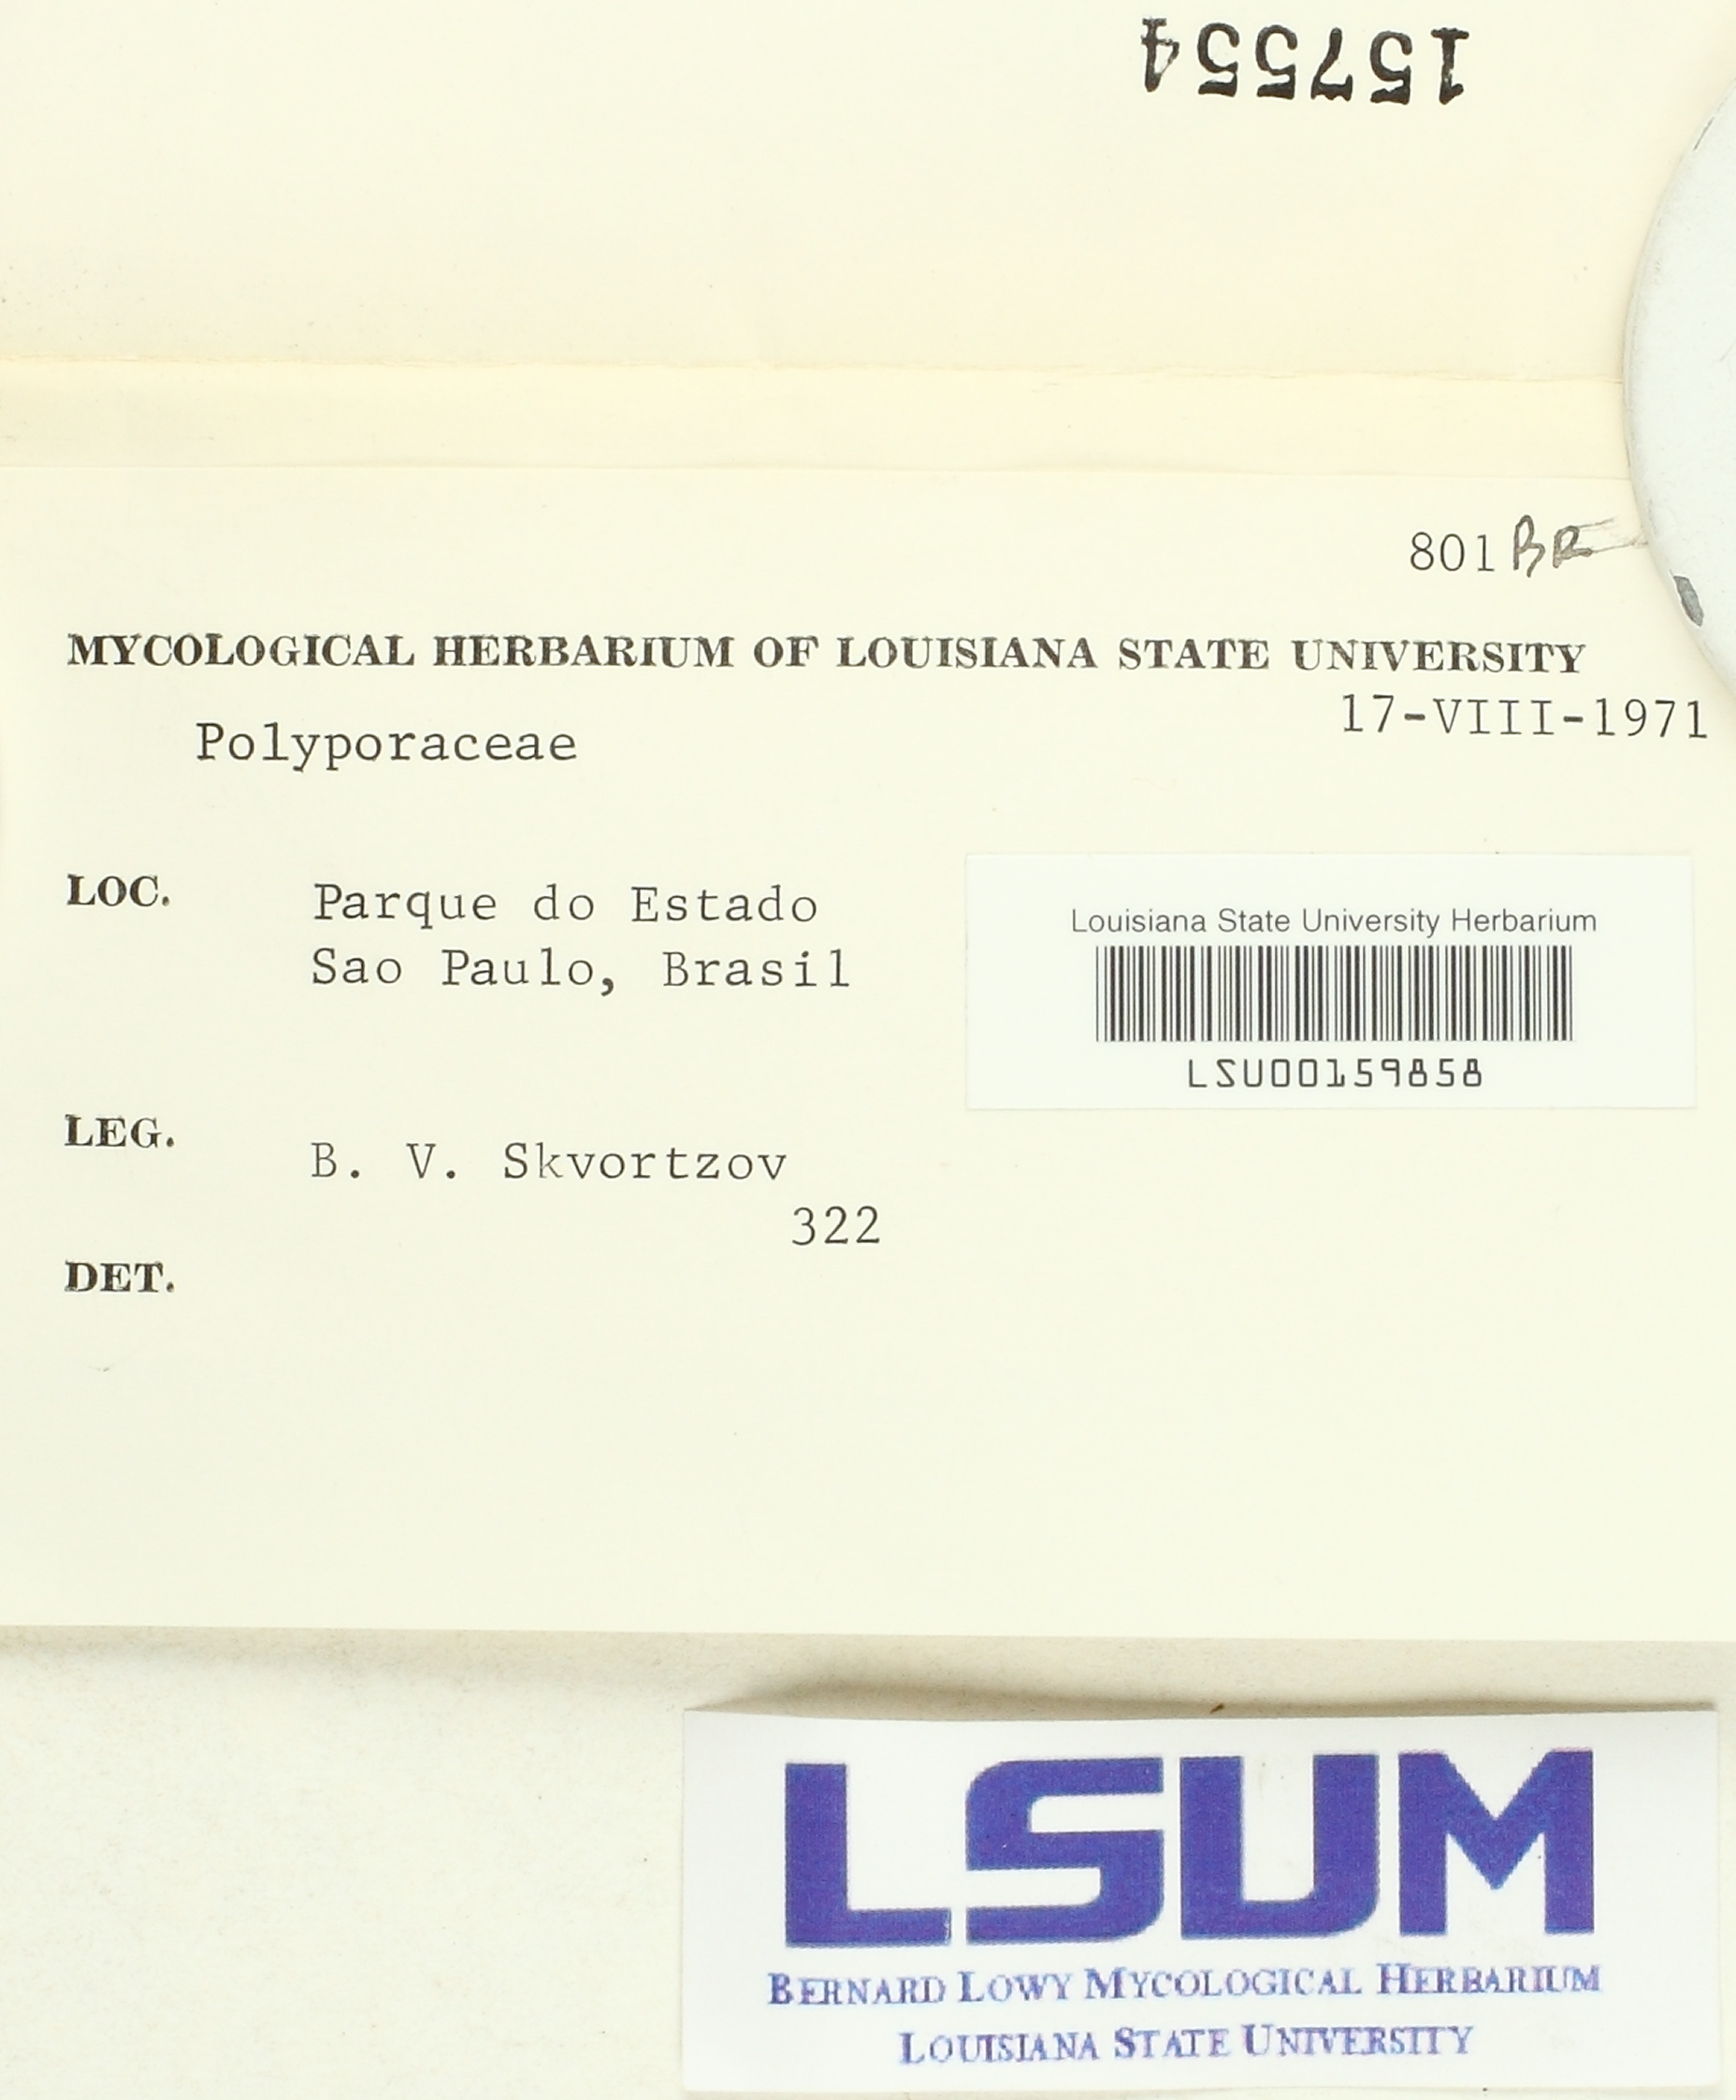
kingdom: Fungi
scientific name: Fungi
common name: Fungi
